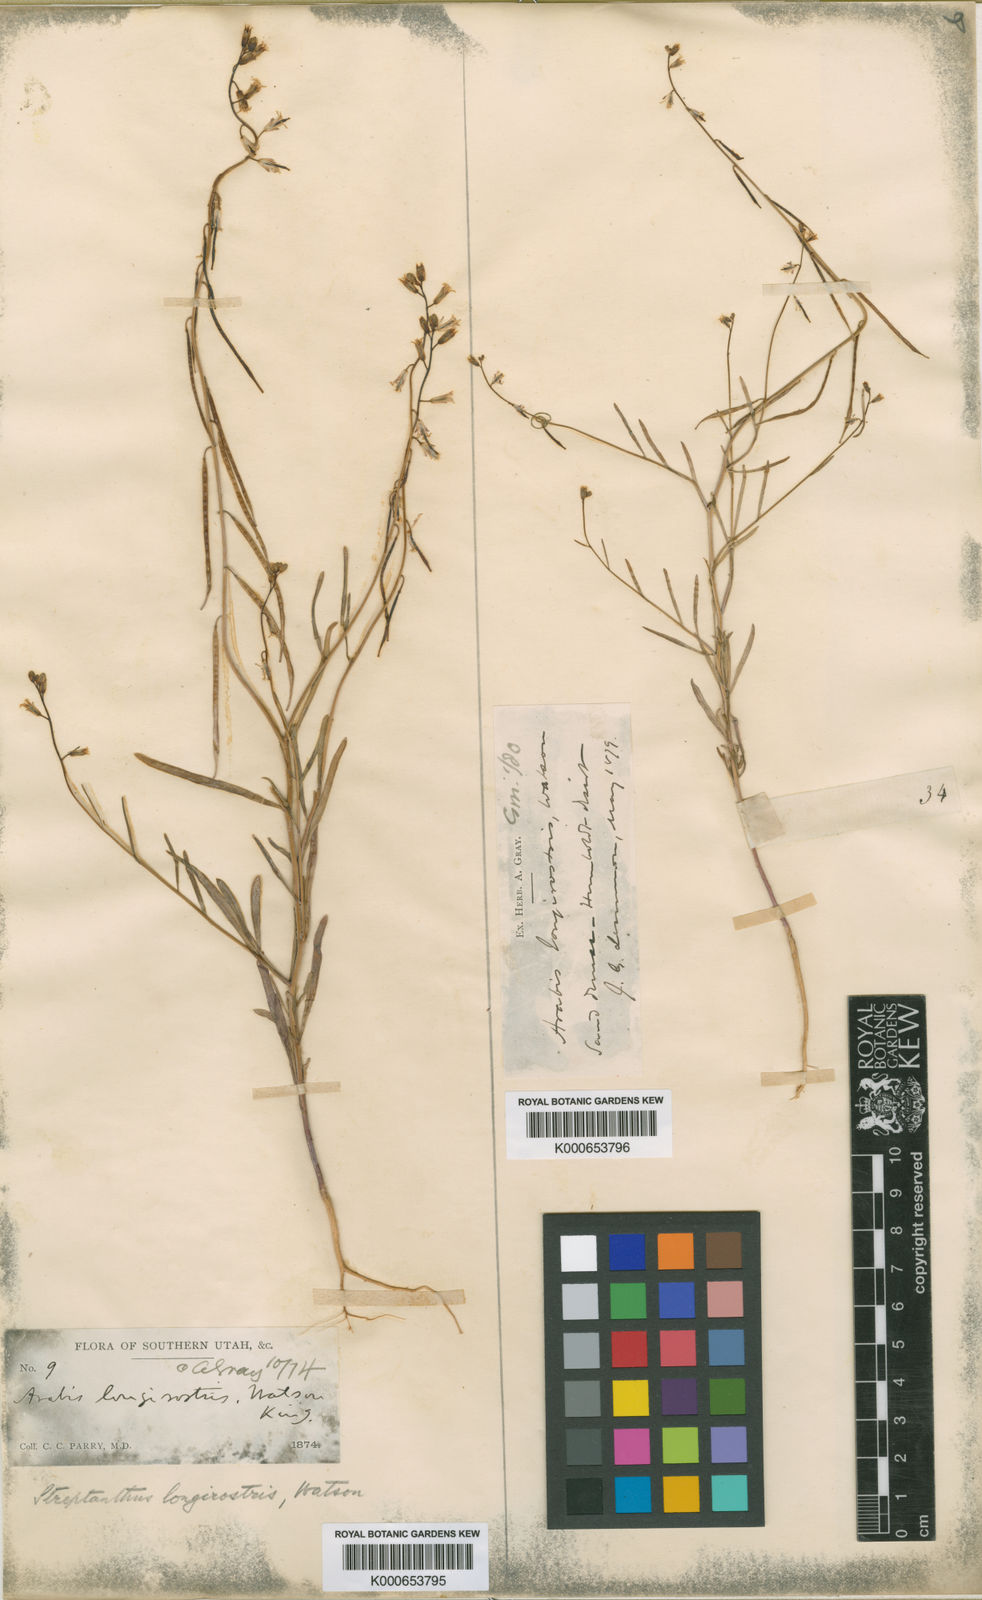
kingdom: Plantae
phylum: Tracheophyta
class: Magnoliopsida
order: Brassicales
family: Brassicaceae
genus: Streptanthus
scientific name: Streptanthus longirostris
